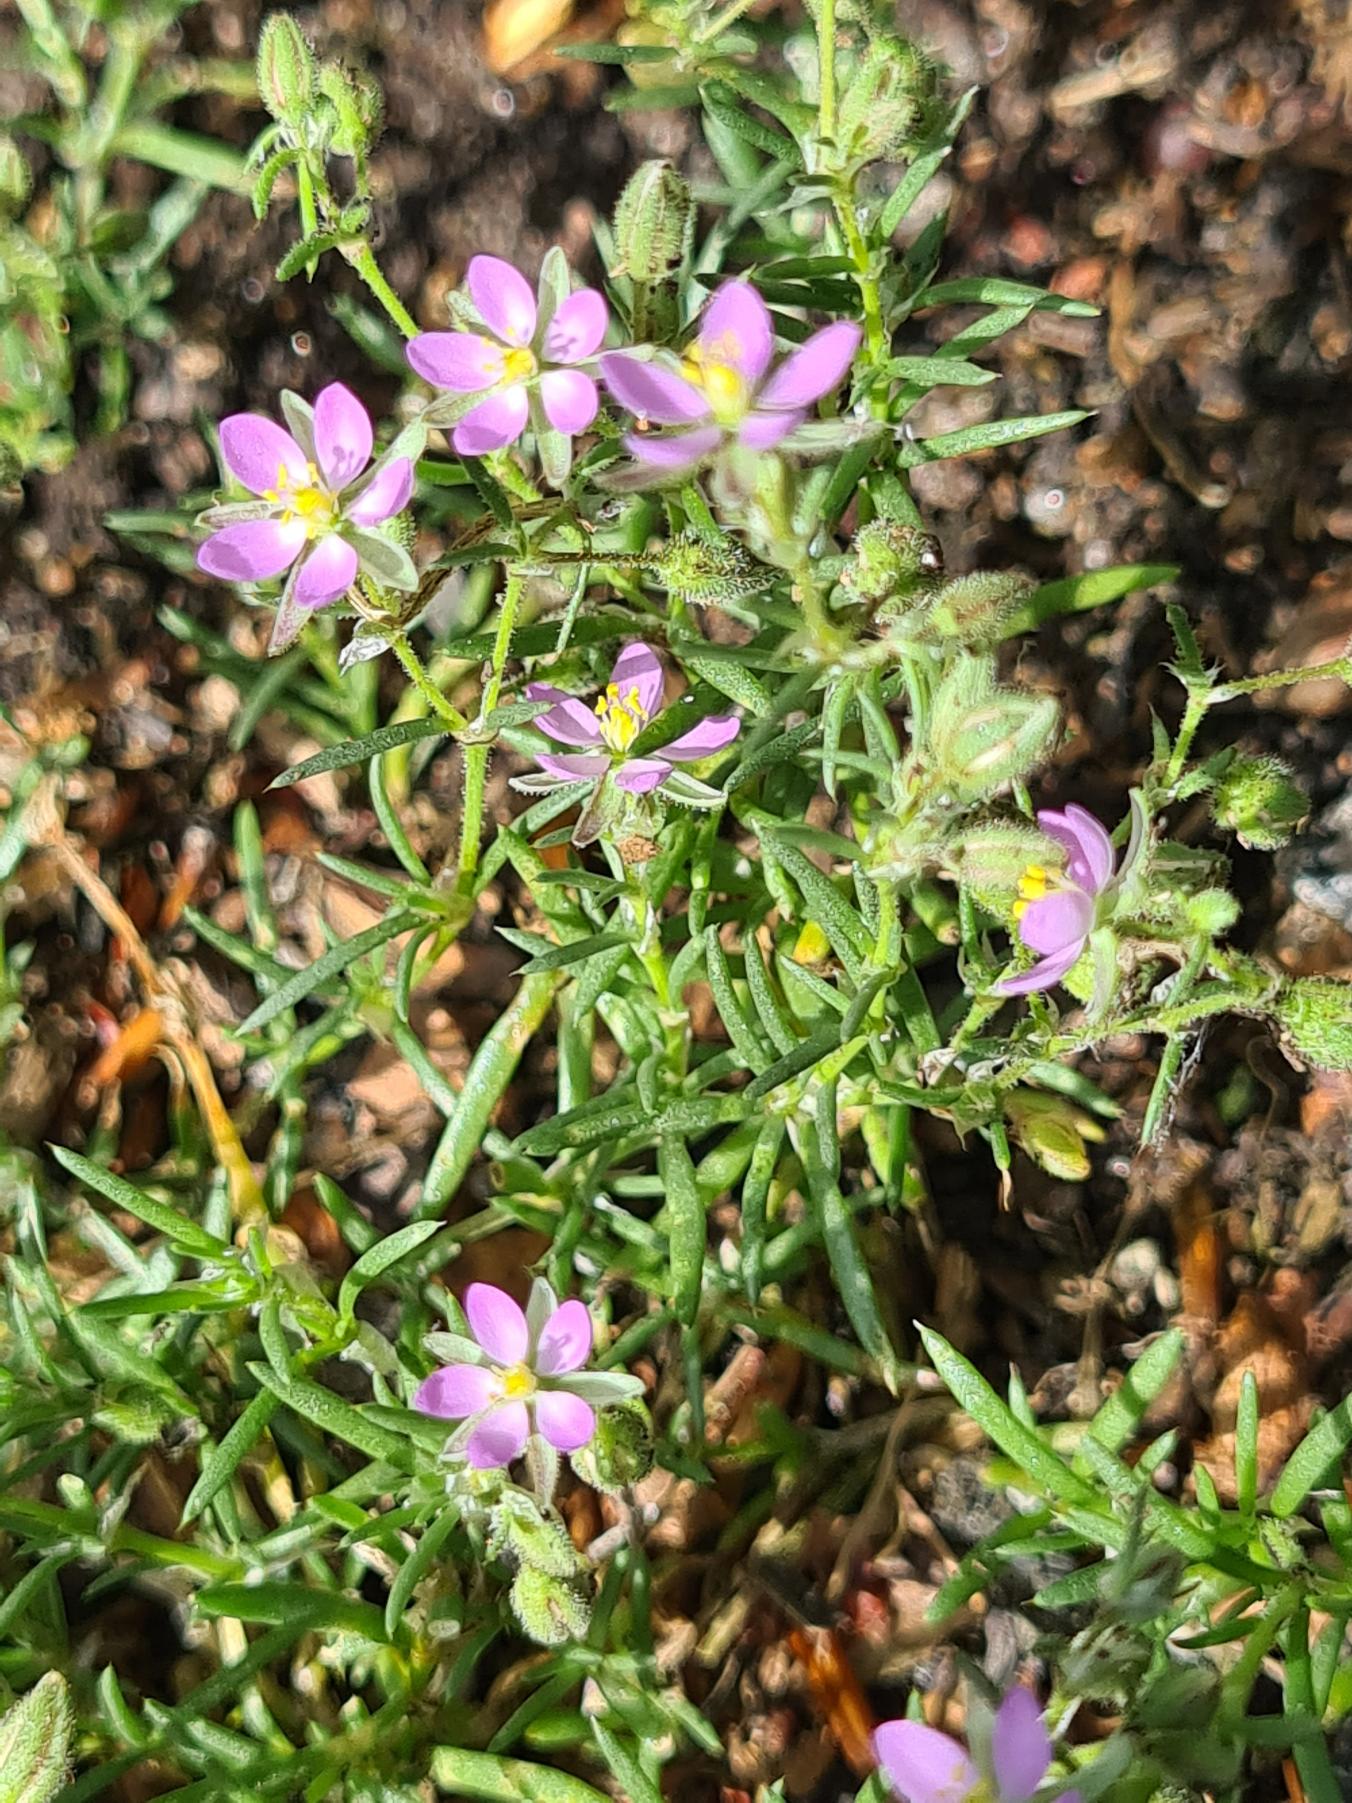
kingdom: Plantae
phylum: Tracheophyta
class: Magnoliopsida
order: Caryophyllales
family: Caryophyllaceae
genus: Spergularia
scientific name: Spergularia rubra
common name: Mark-hindeknæ
